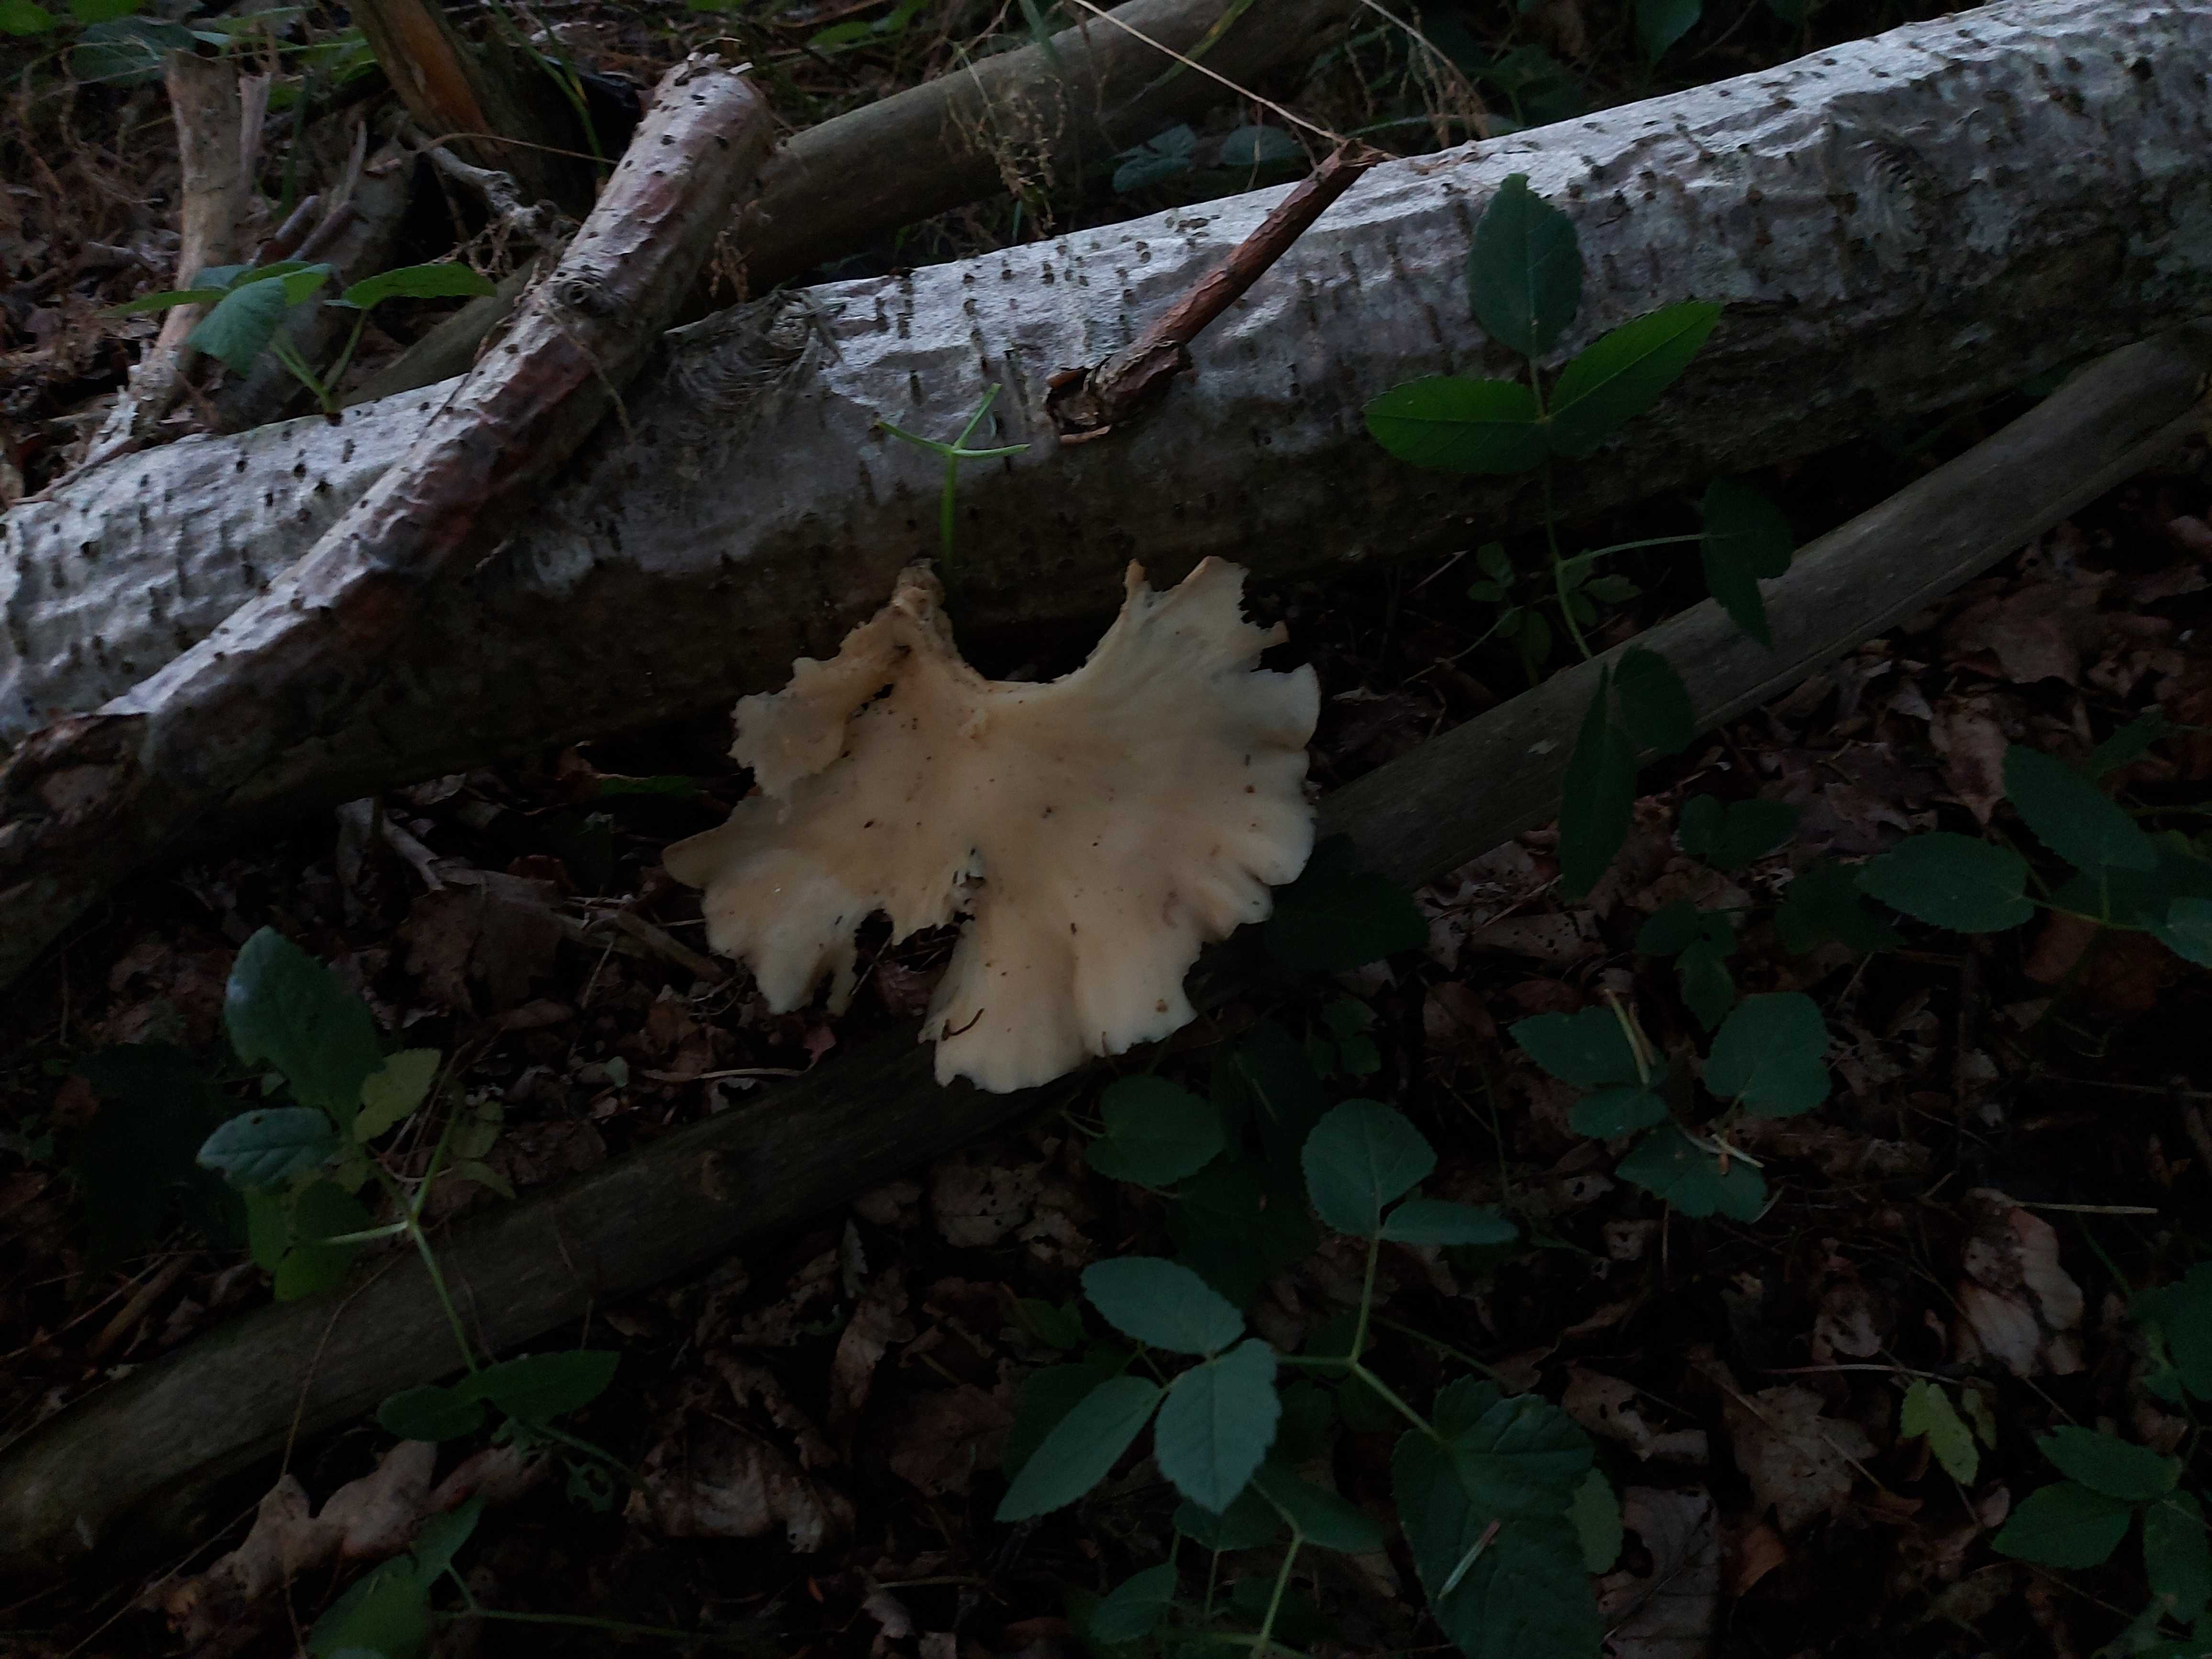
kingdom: Fungi
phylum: Basidiomycota
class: Agaricomycetes
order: Agaricales
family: Pleurotaceae
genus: Pleurotus
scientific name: Pleurotus pulmonarius
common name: sommer-østershat
